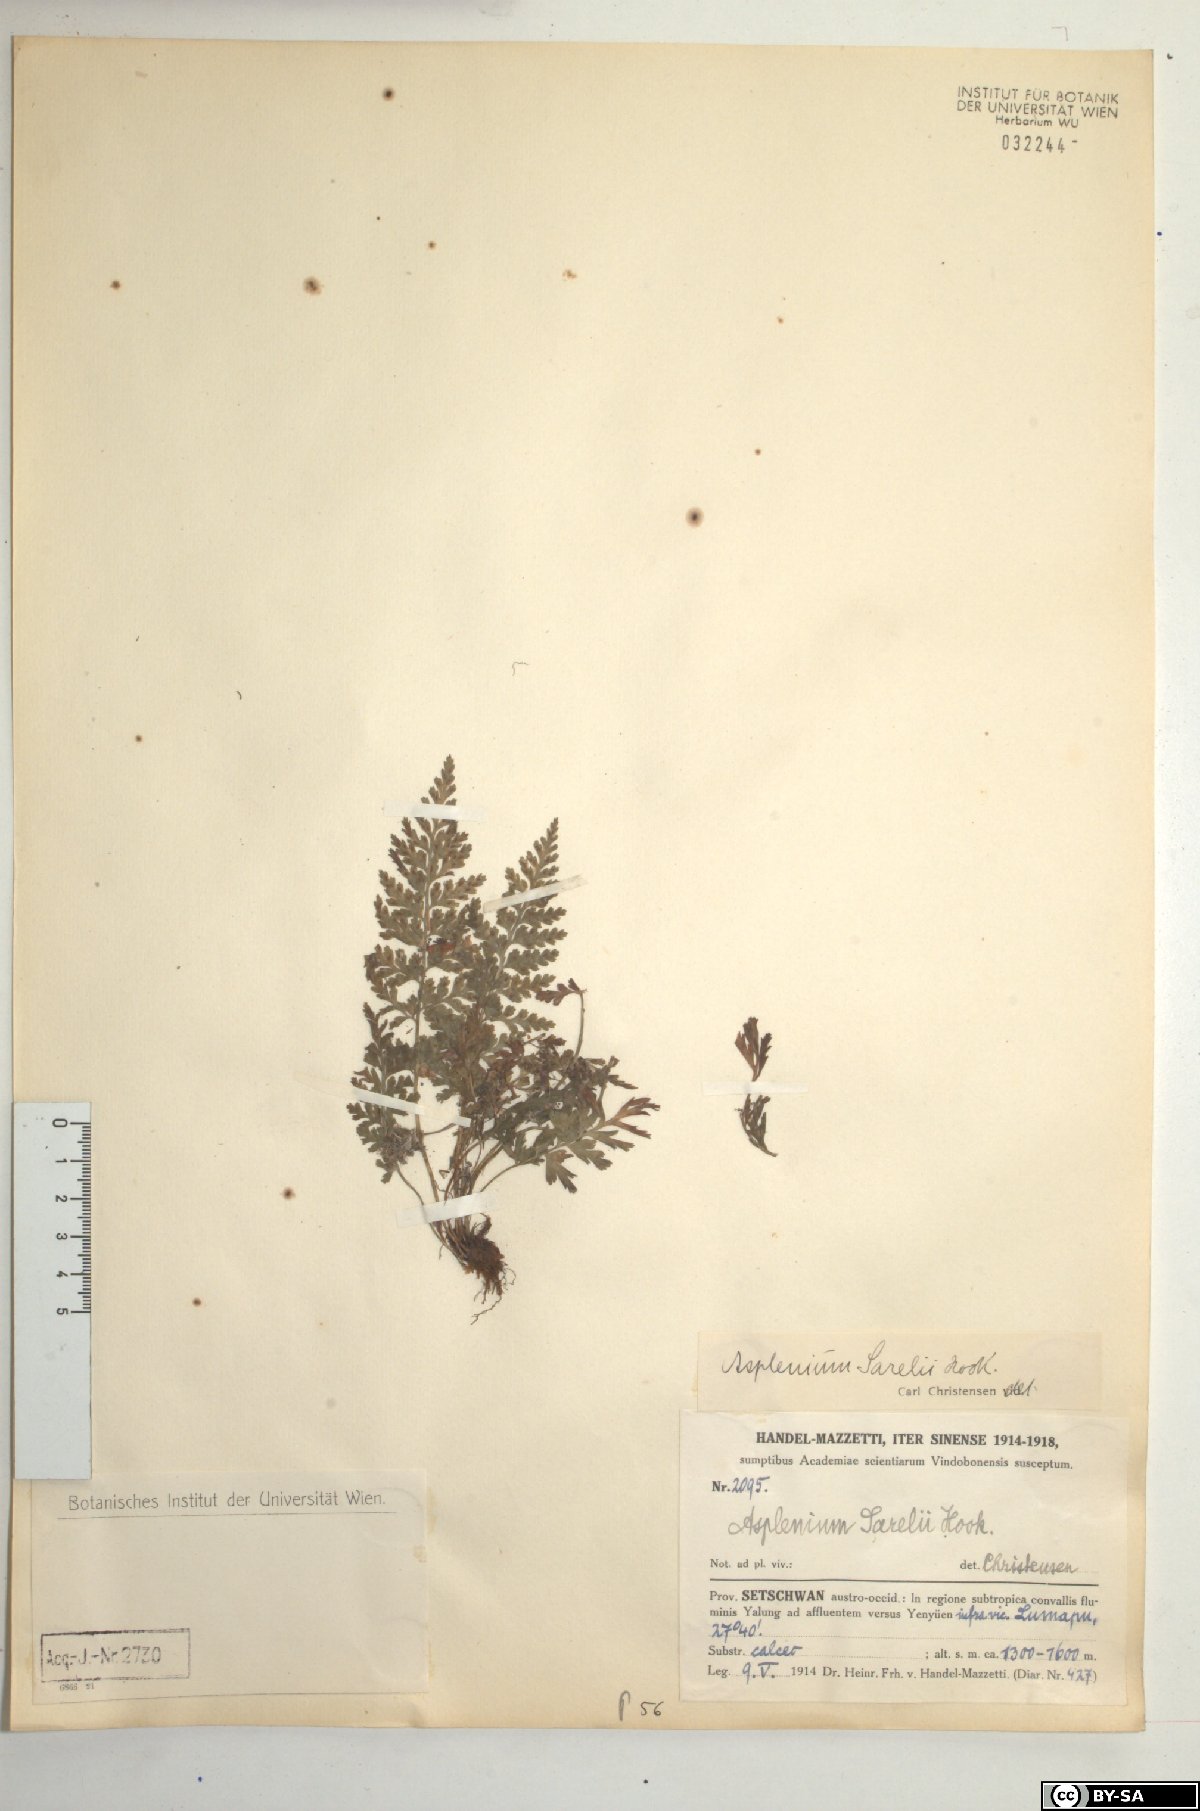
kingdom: Plantae
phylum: Tracheophyta
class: Polypodiopsida
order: Polypodiales
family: Aspleniaceae
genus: Asplenium
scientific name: Asplenium sarelii
